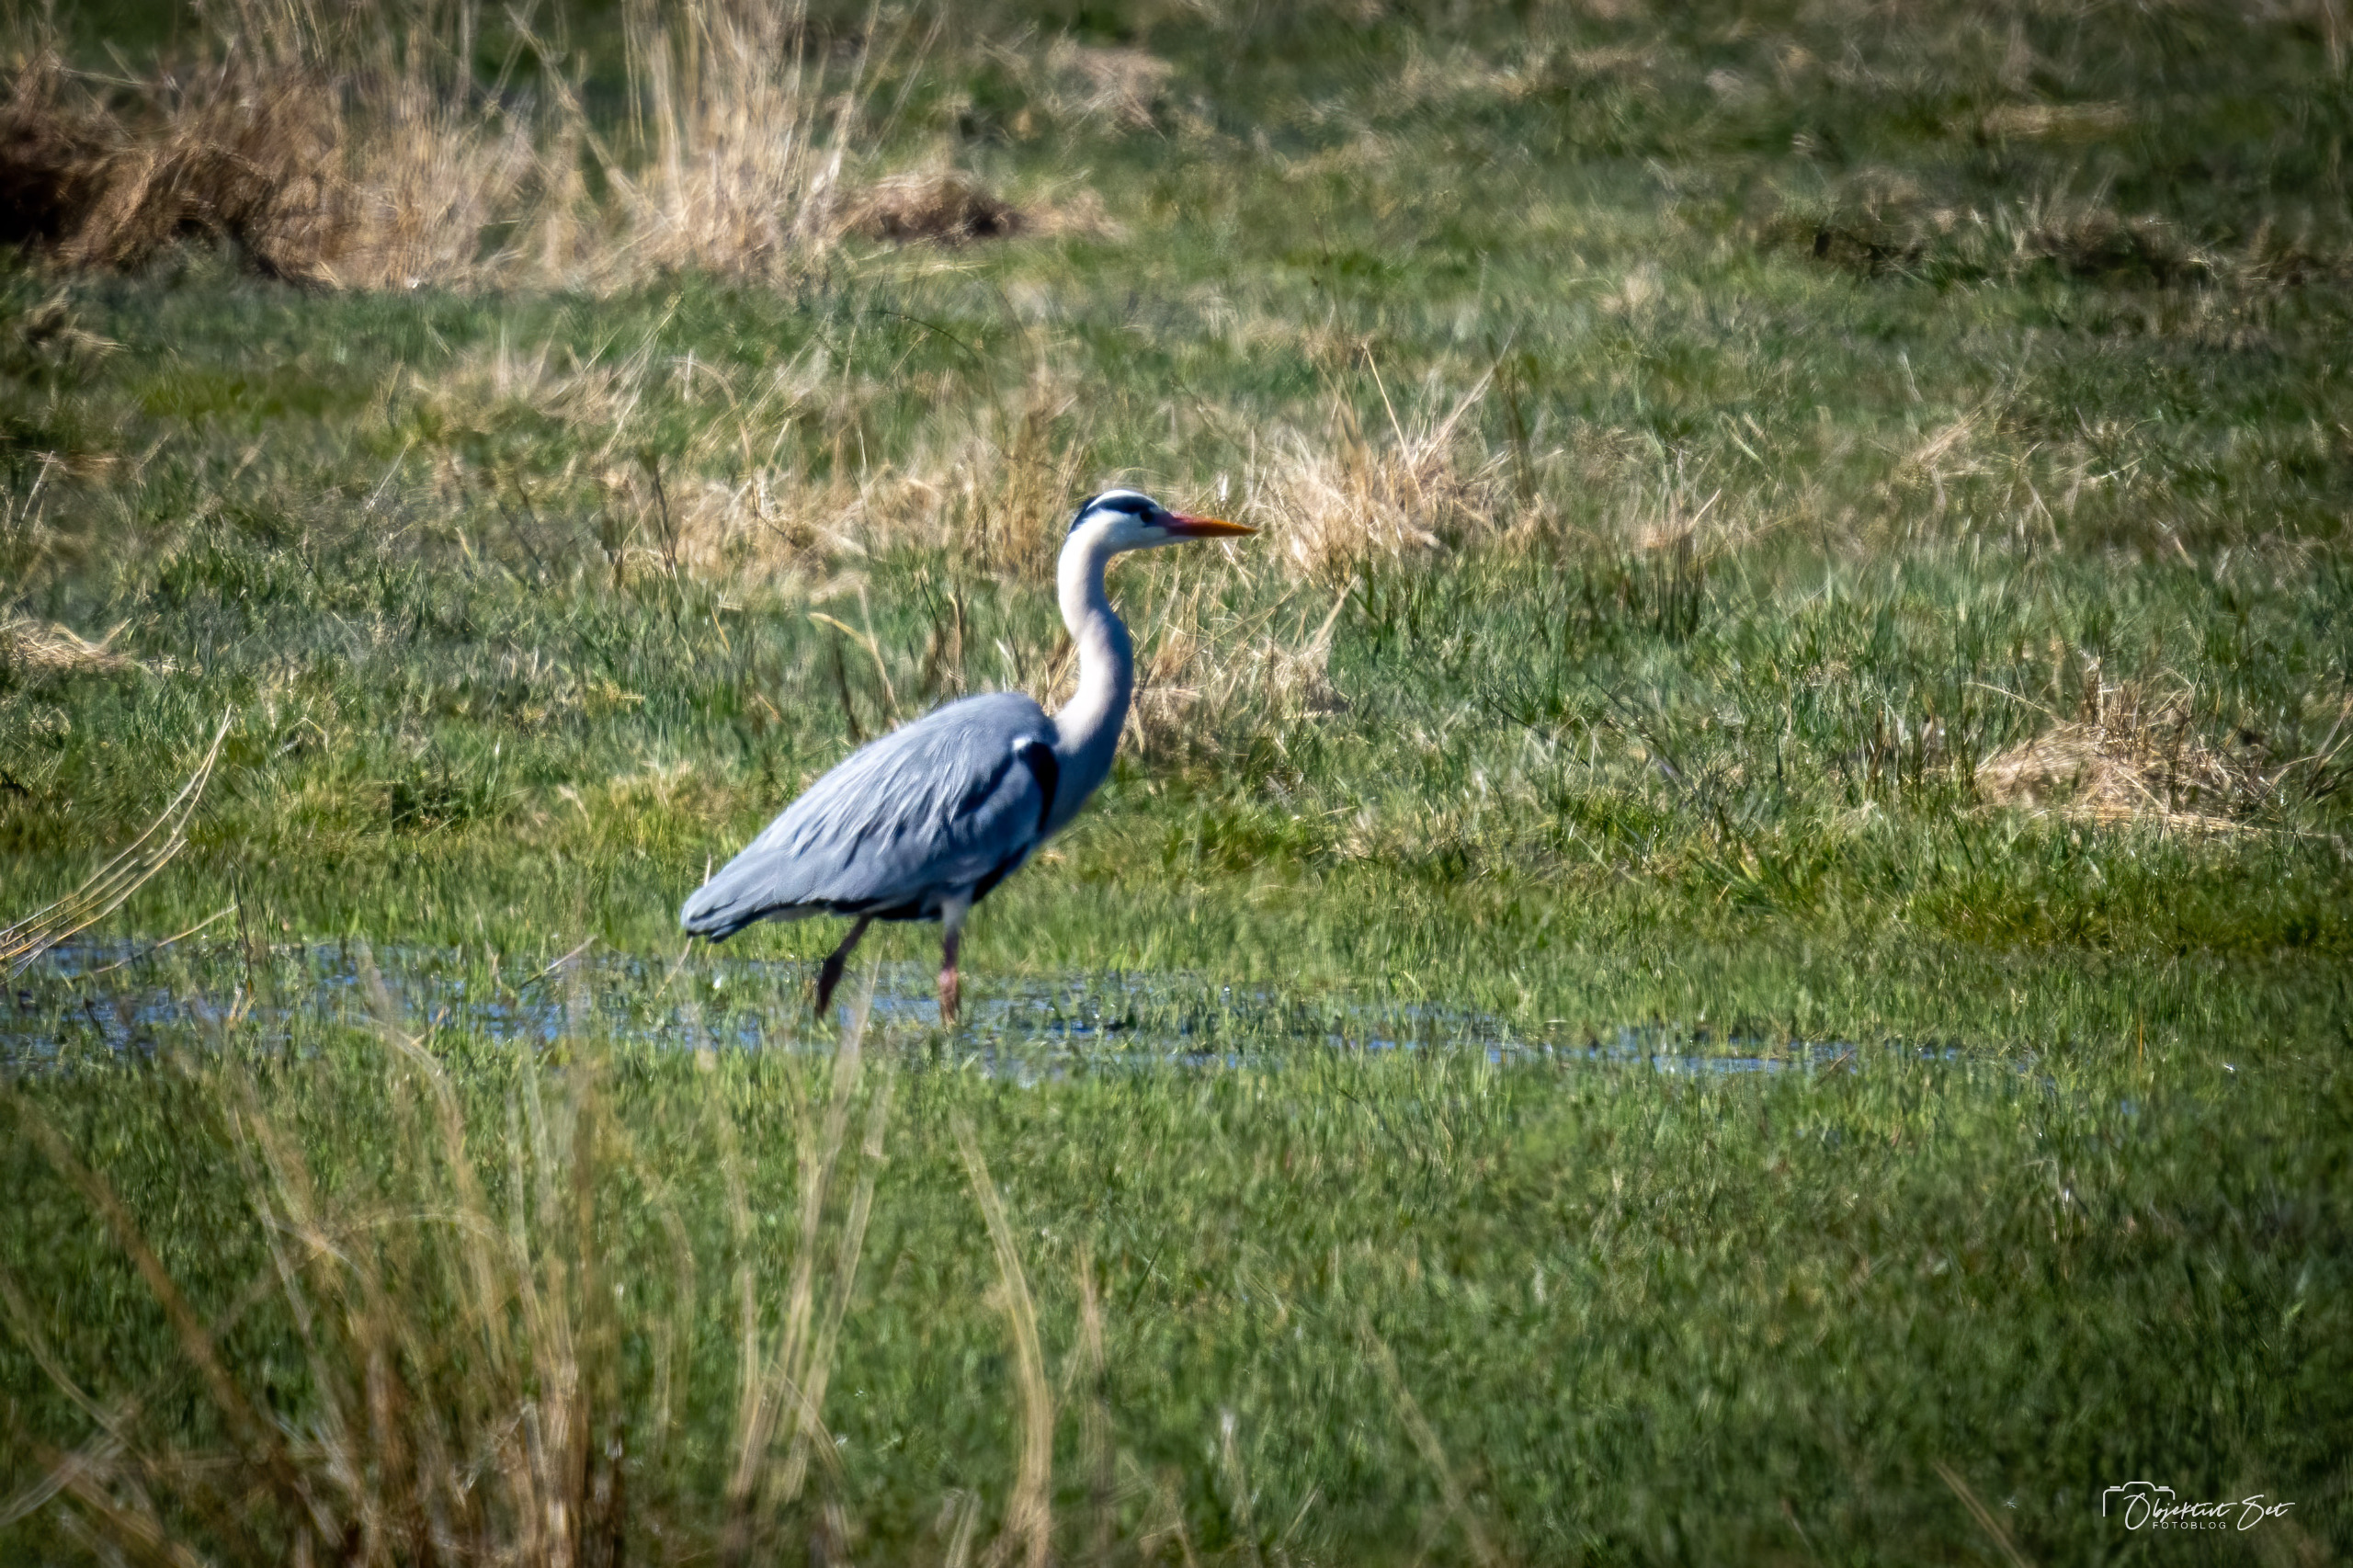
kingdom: Animalia
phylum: Chordata
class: Aves
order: Pelecaniformes
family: Ardeidae
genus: Ardea
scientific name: Ardea cinerea
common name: Fiskehejre
